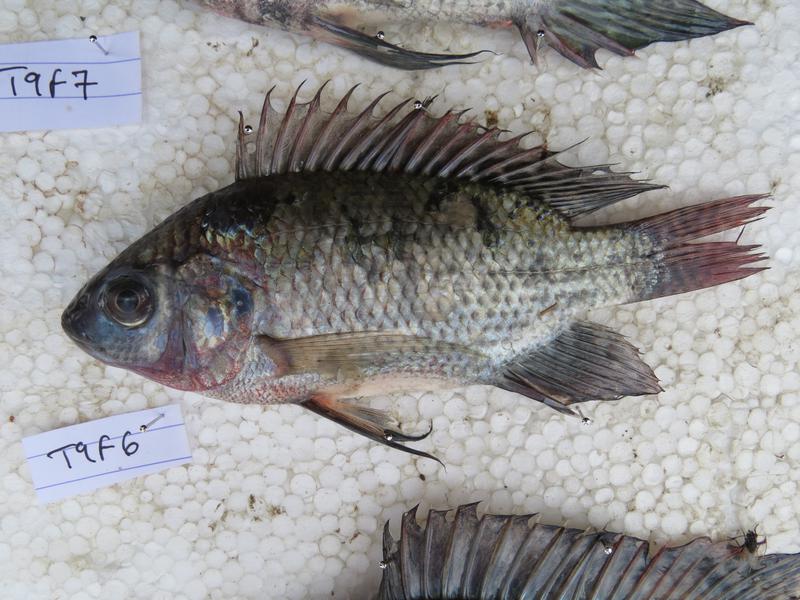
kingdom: Animalia
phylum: Chordata
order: Perciformes
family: Cichlidae
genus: Oreochromis
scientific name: Oreochromis niloticus
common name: Nile tilapia
